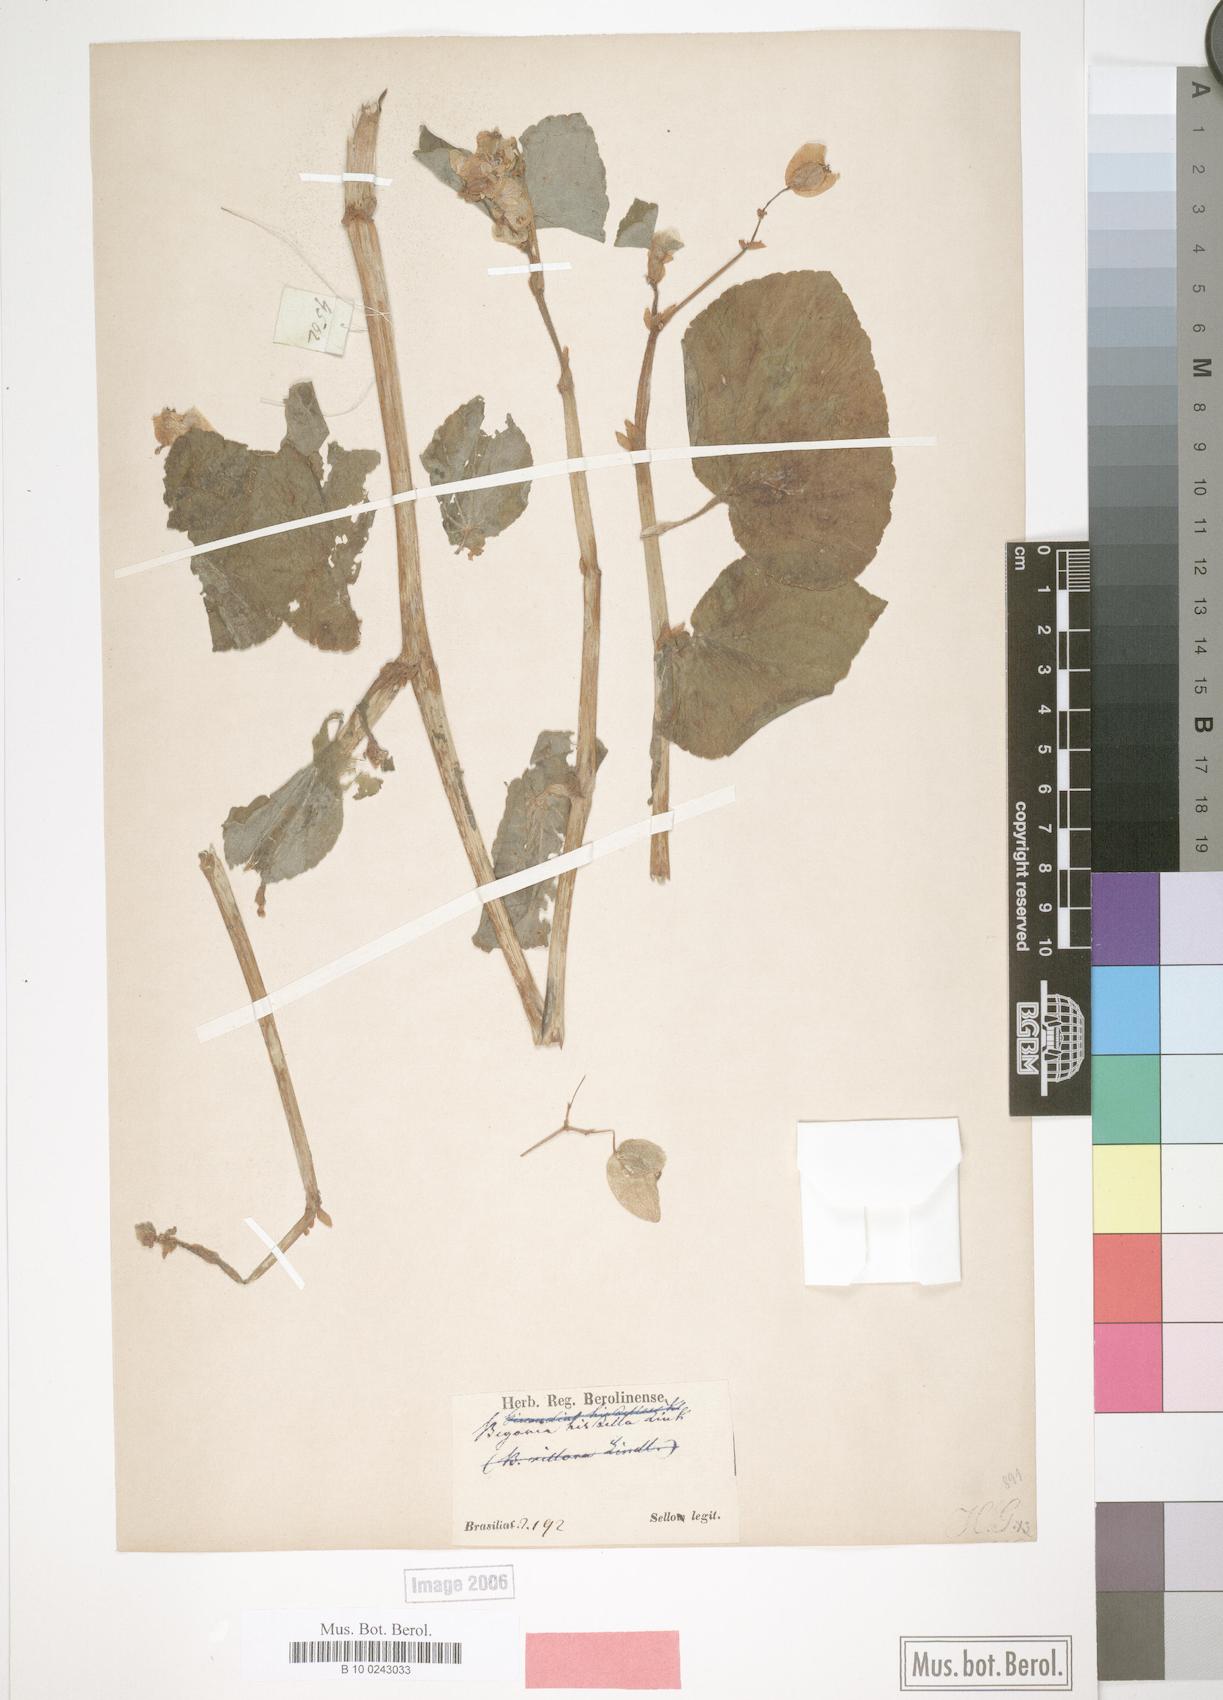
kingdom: Plantae
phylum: Tracheophyta
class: Magnoliopsida
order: Cucurbitales
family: Begoniaceae
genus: Begonia
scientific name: Begonia hirtella
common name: Brazilian begonia
